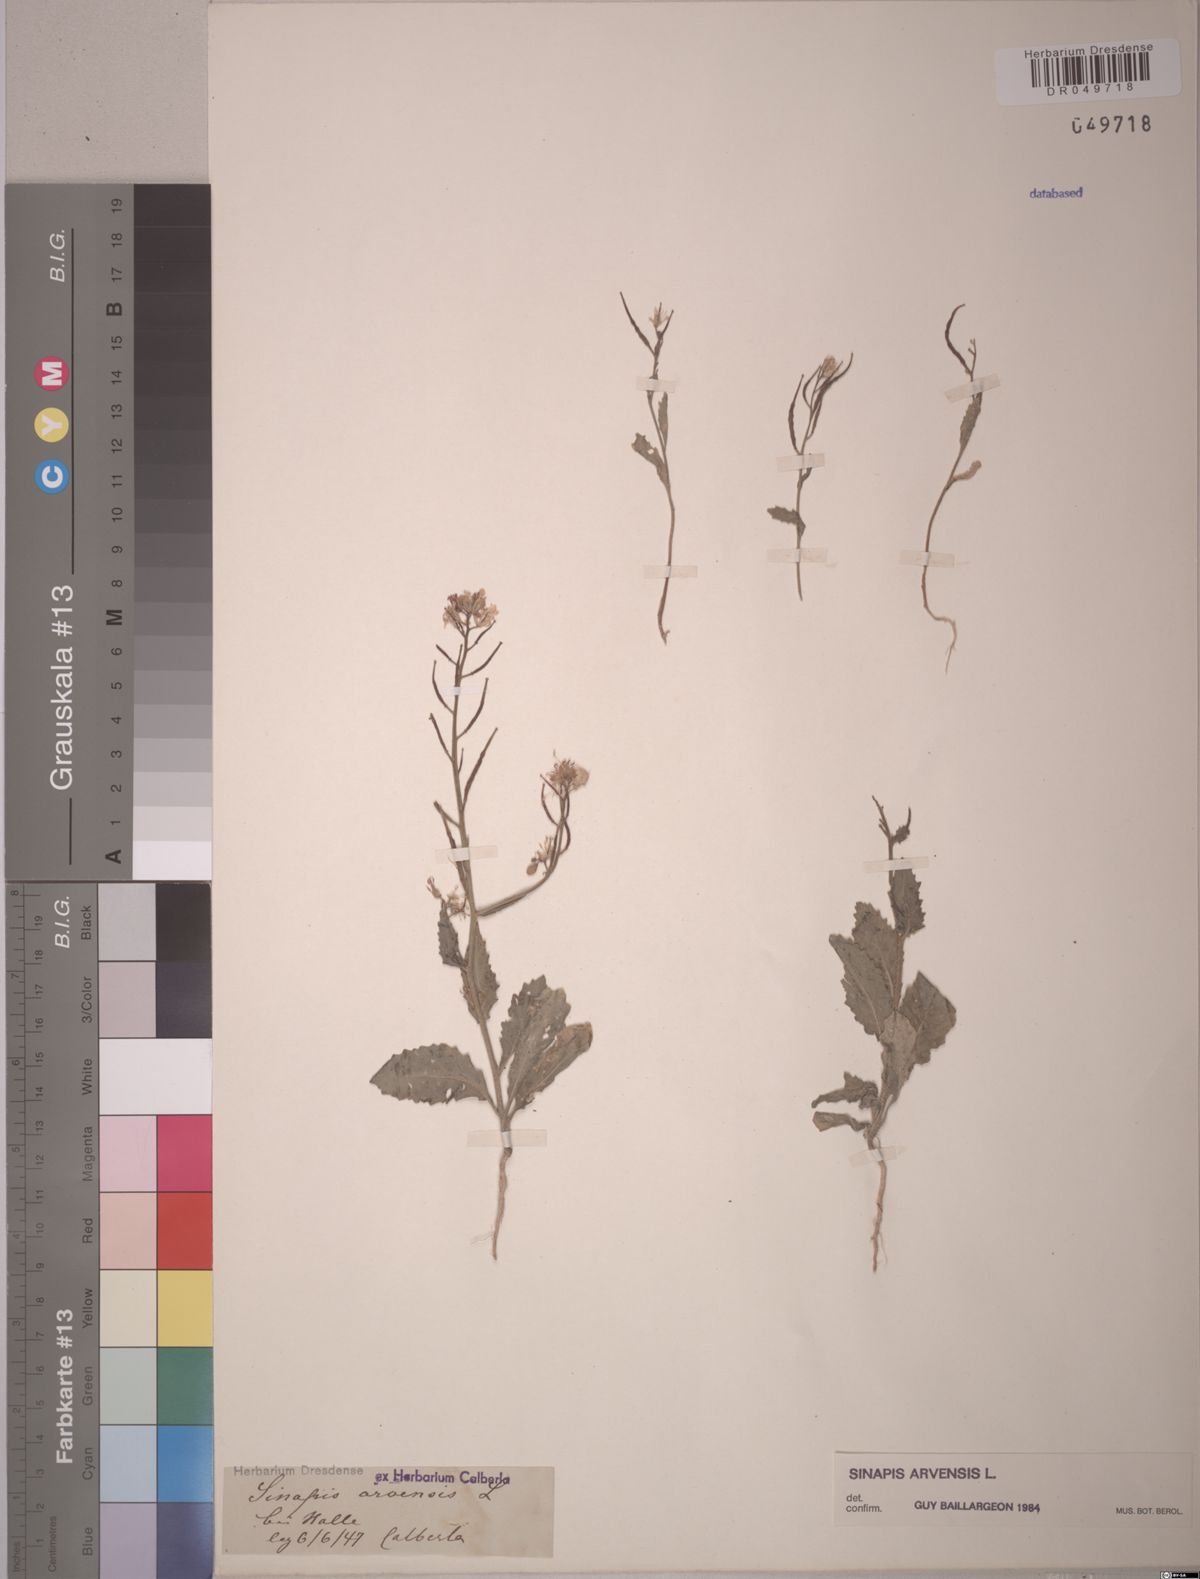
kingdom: Plantae
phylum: Tracheophyta
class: Magnoliopsida
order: Brassicales
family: Brassicaceae
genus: Sinapis
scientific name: Sinapis arvensis
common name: Charlock
